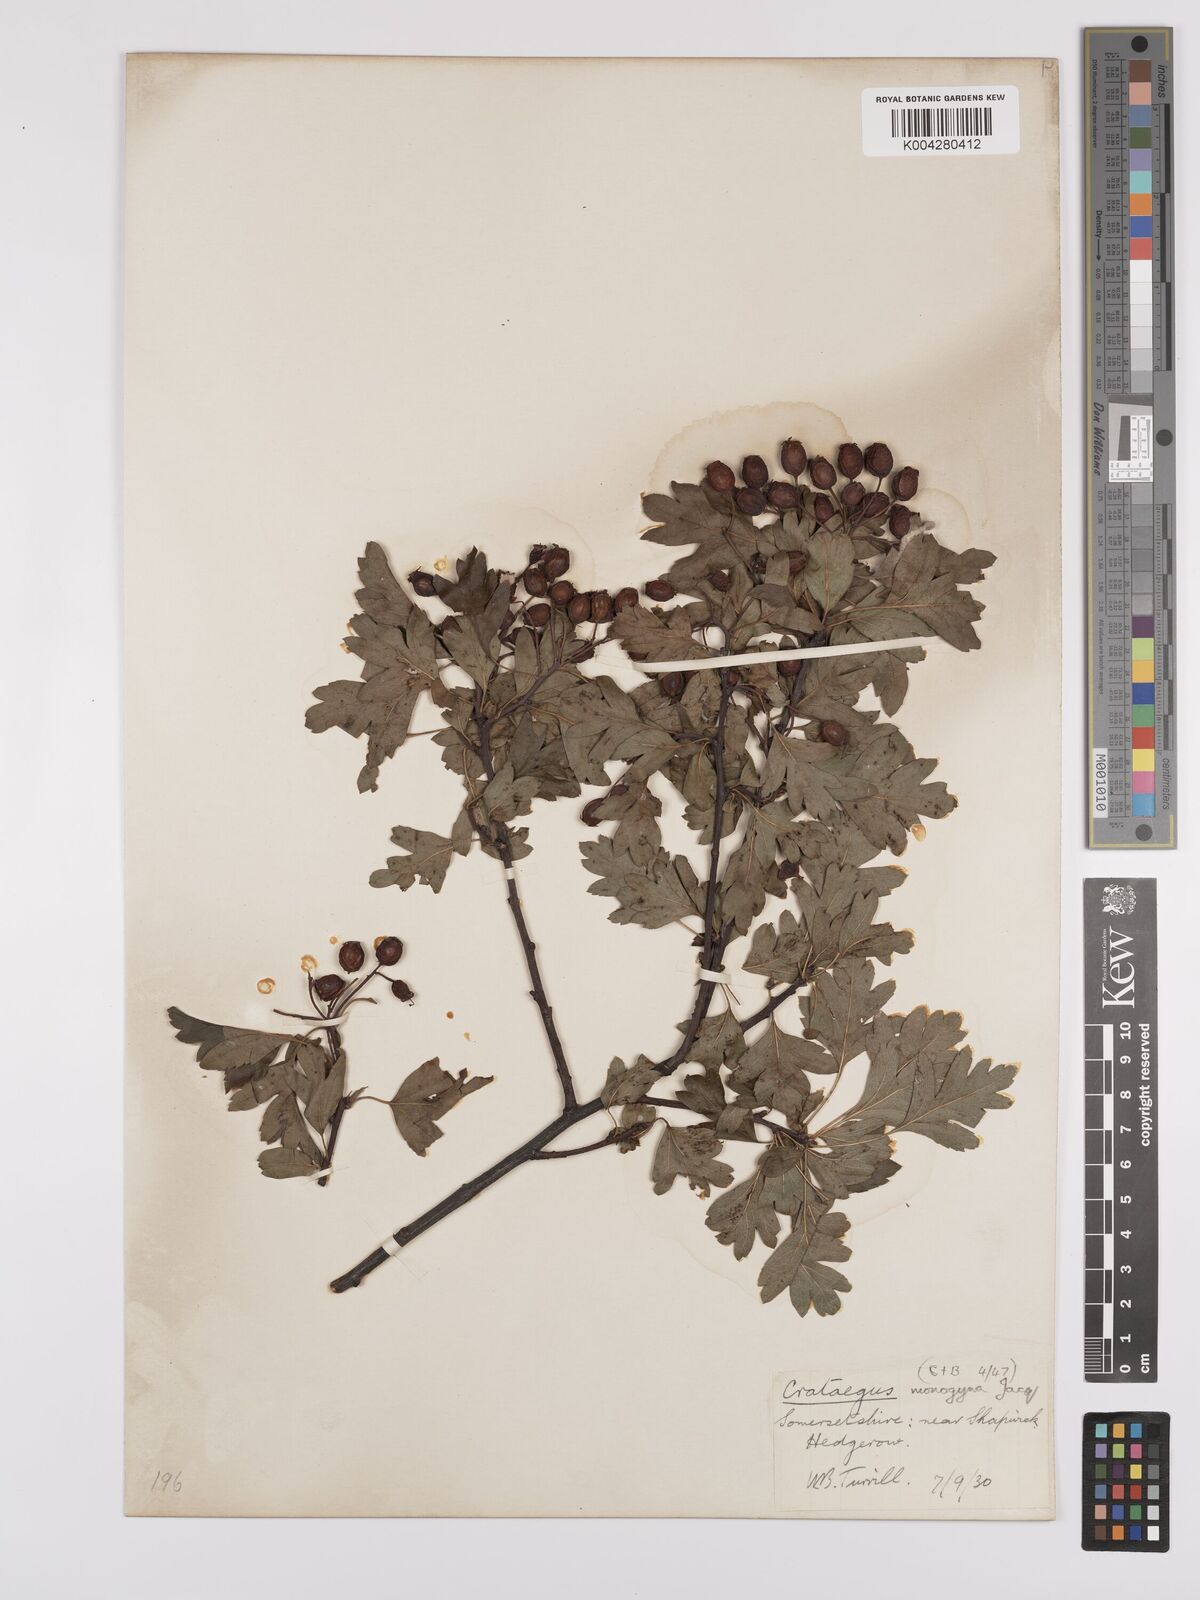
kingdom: Plantae
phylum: Tracheophyta
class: Magnoliopsida
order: Rosales
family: Rosaceae
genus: Crataegus
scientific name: Crataegus monogyna
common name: Hawthorn
